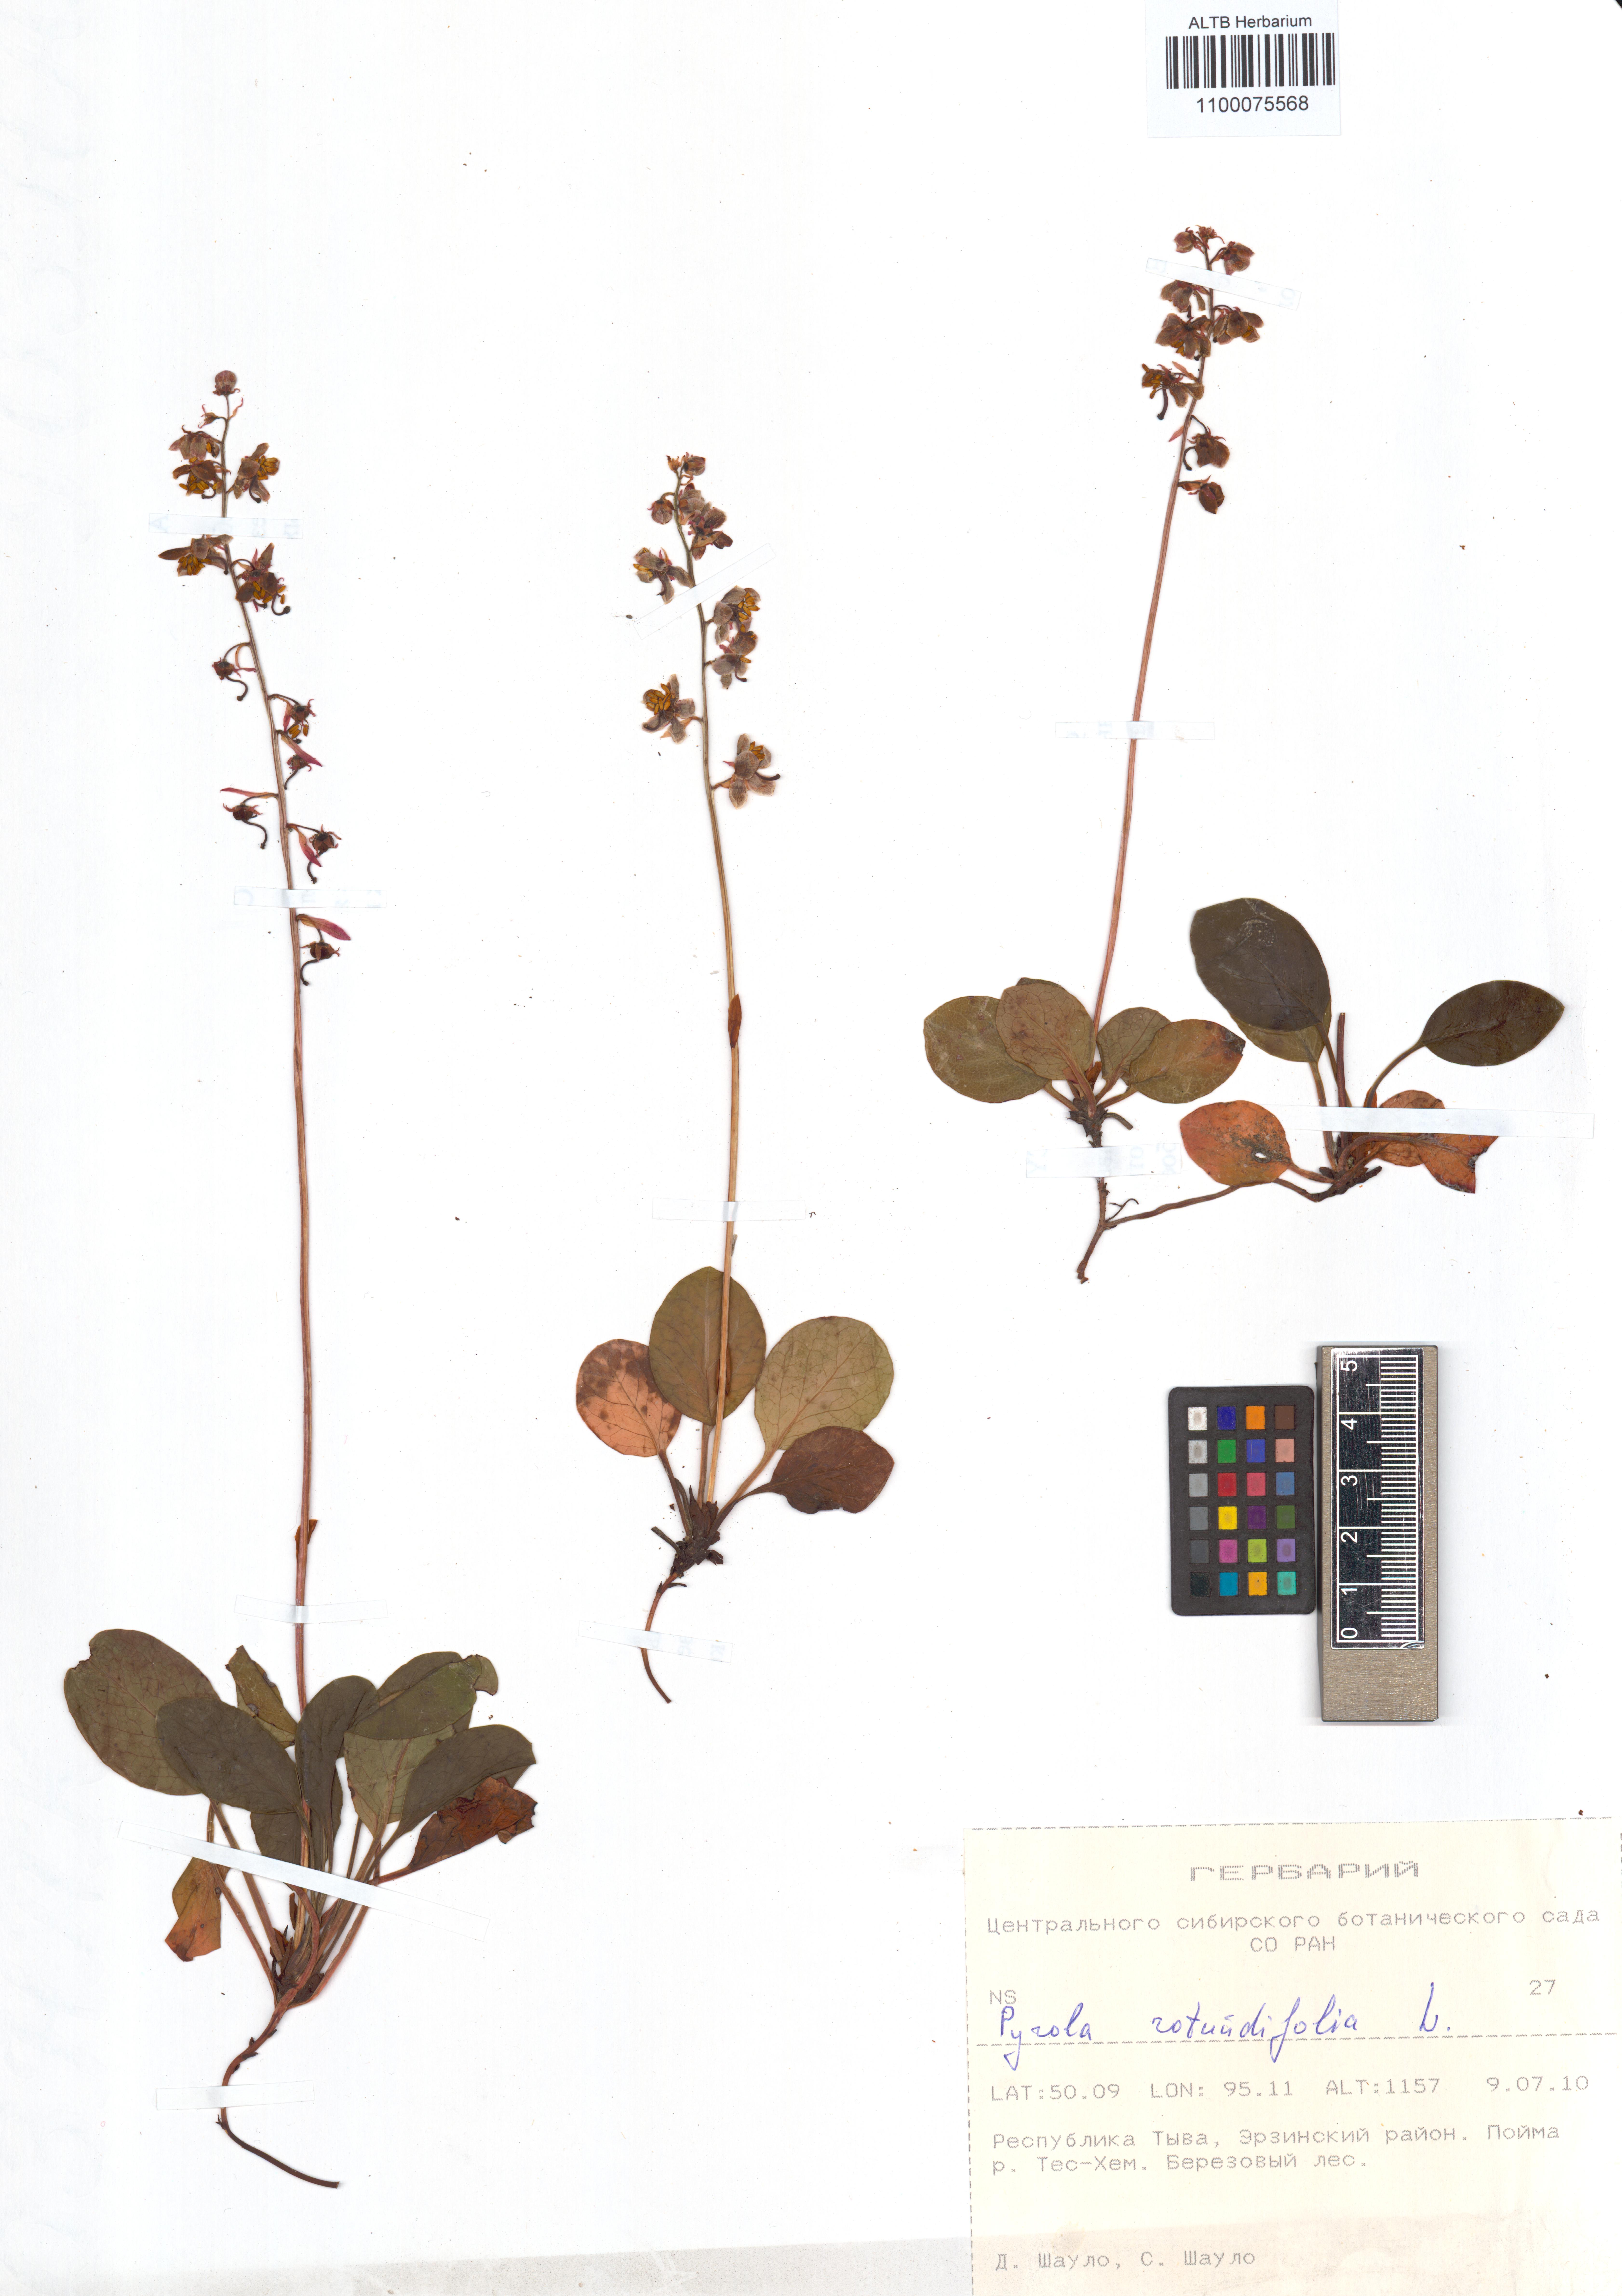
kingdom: Plantae
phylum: Tracheophyta
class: Magnoliopsida
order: Ericales
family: Ericaceae
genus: Pyrola
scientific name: Pyrola rotundifolia
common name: Round-leaved wintergreen
